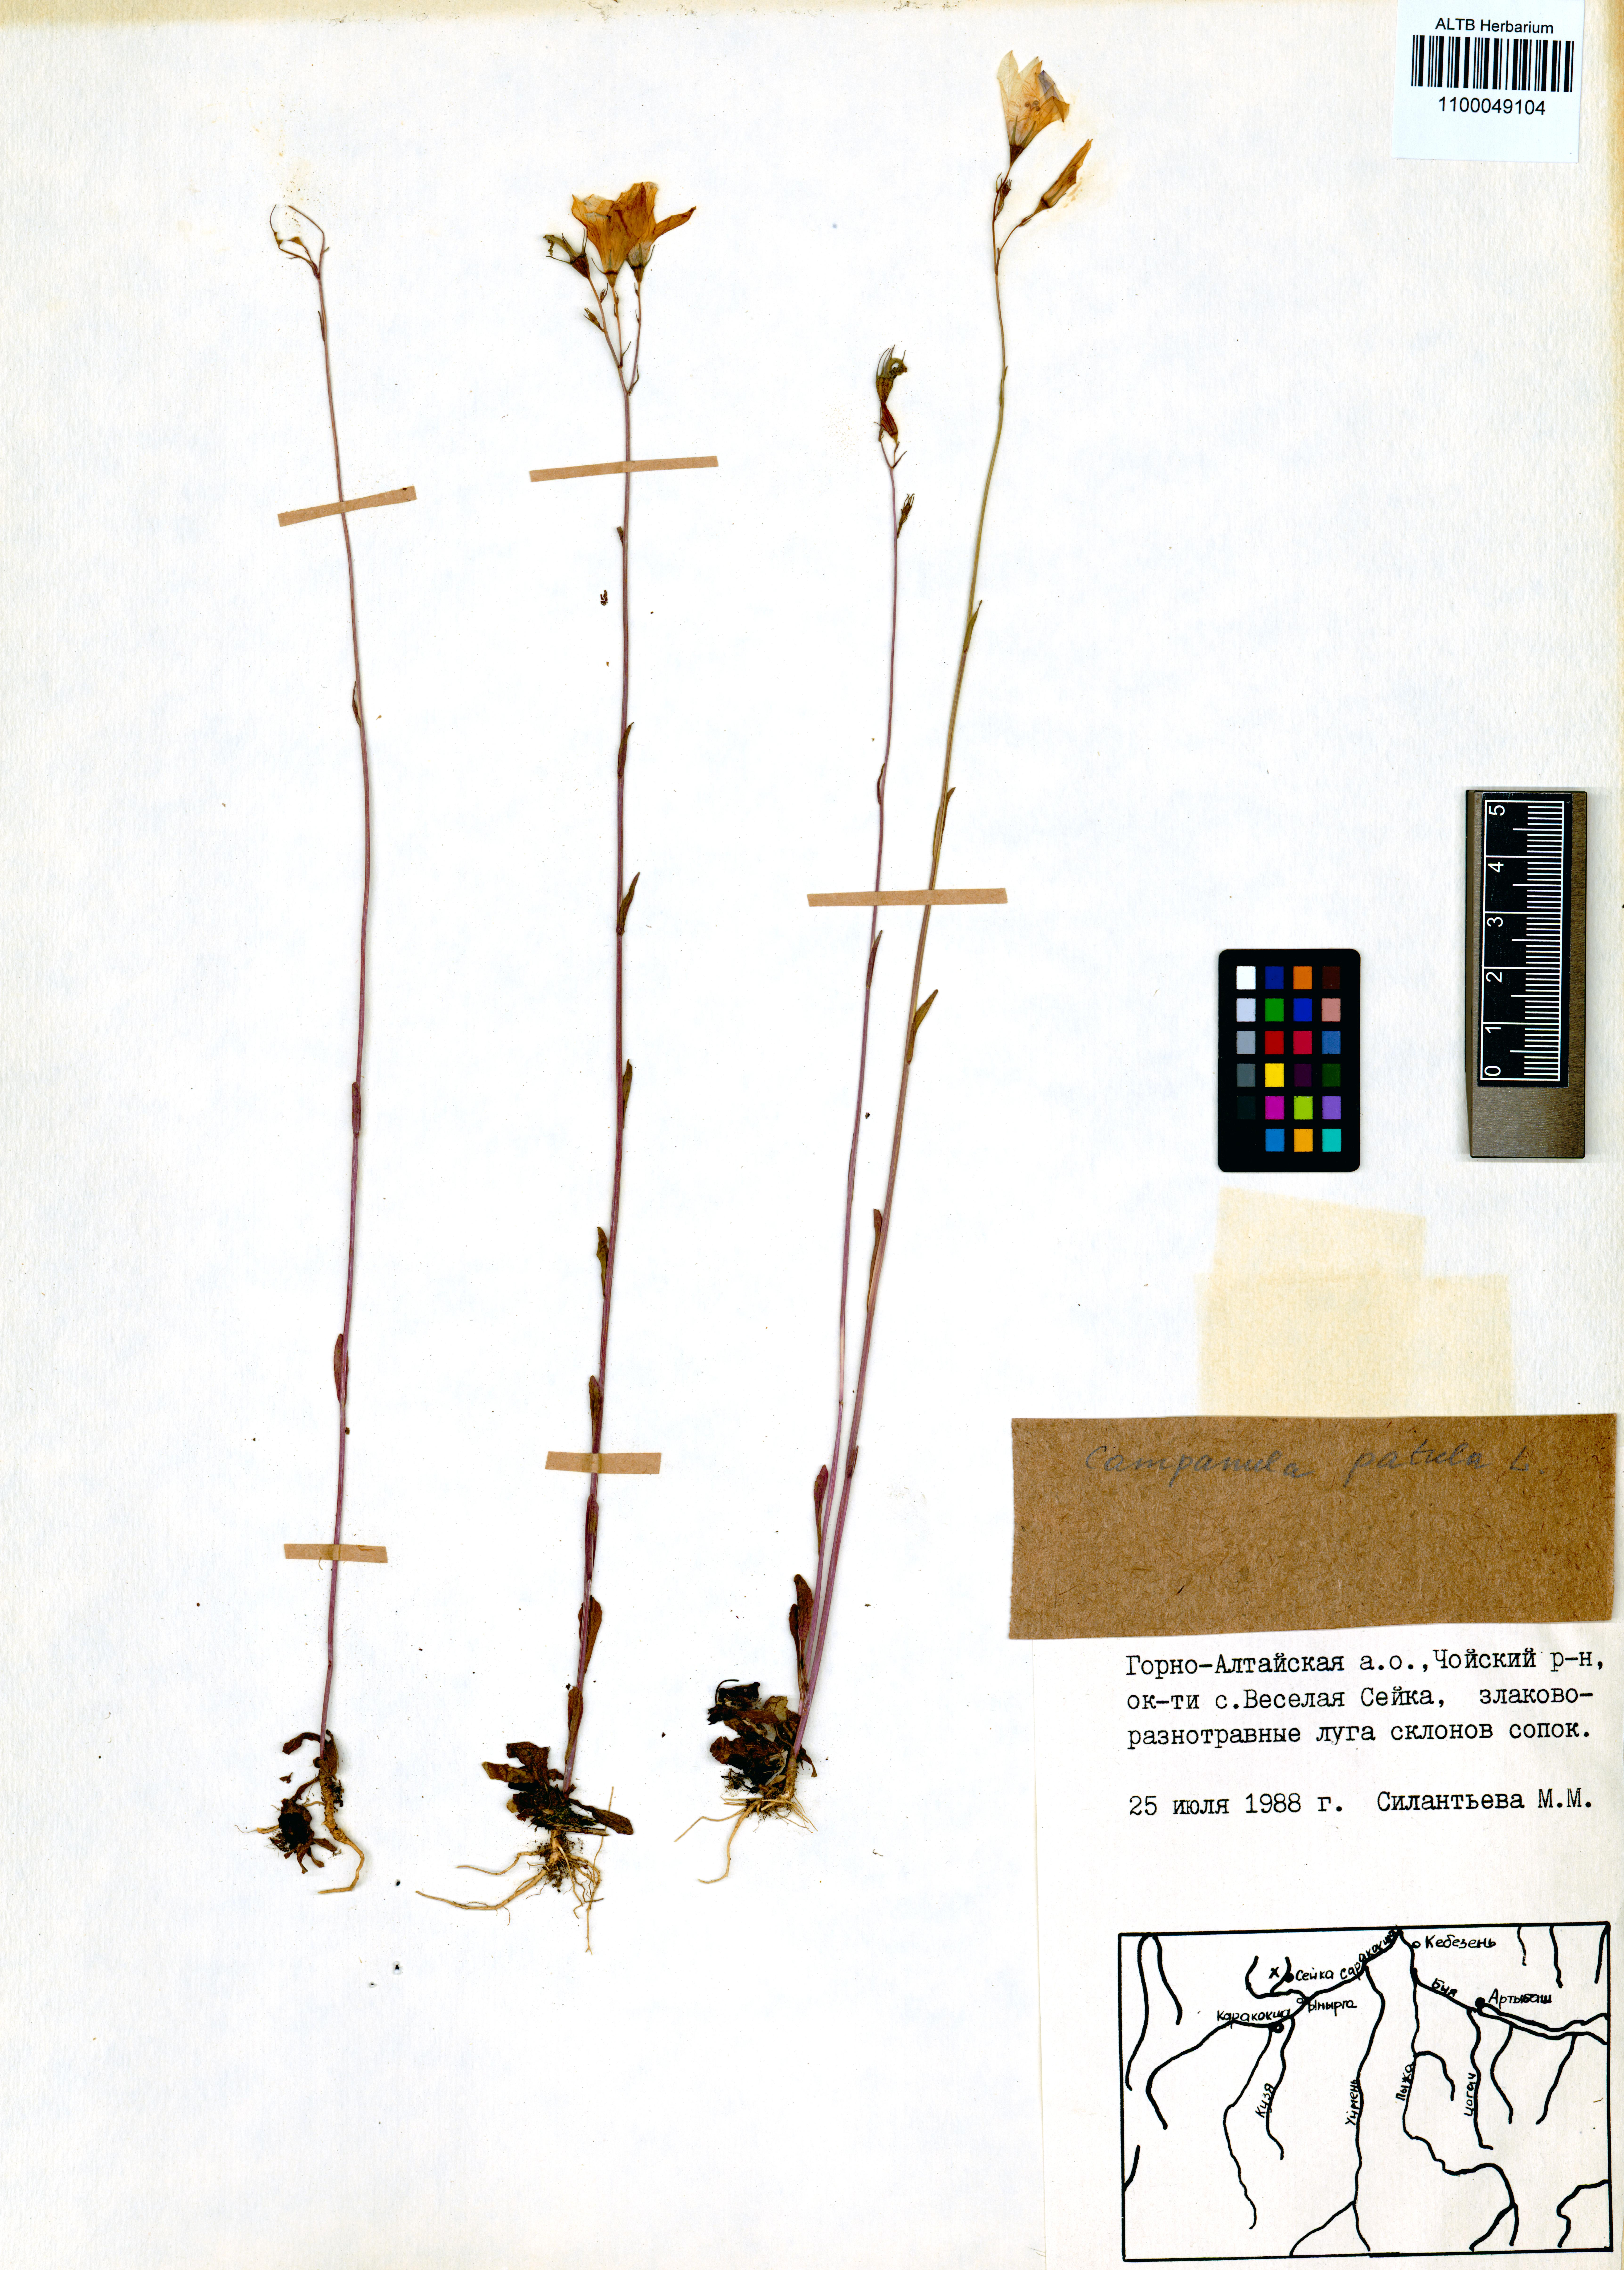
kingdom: Plantae
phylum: Tracheophyta
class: Magnoliopsida
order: Asterales
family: Campanulaceae
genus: Campanula
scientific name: Campanula patula
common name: Spreading bellflower
